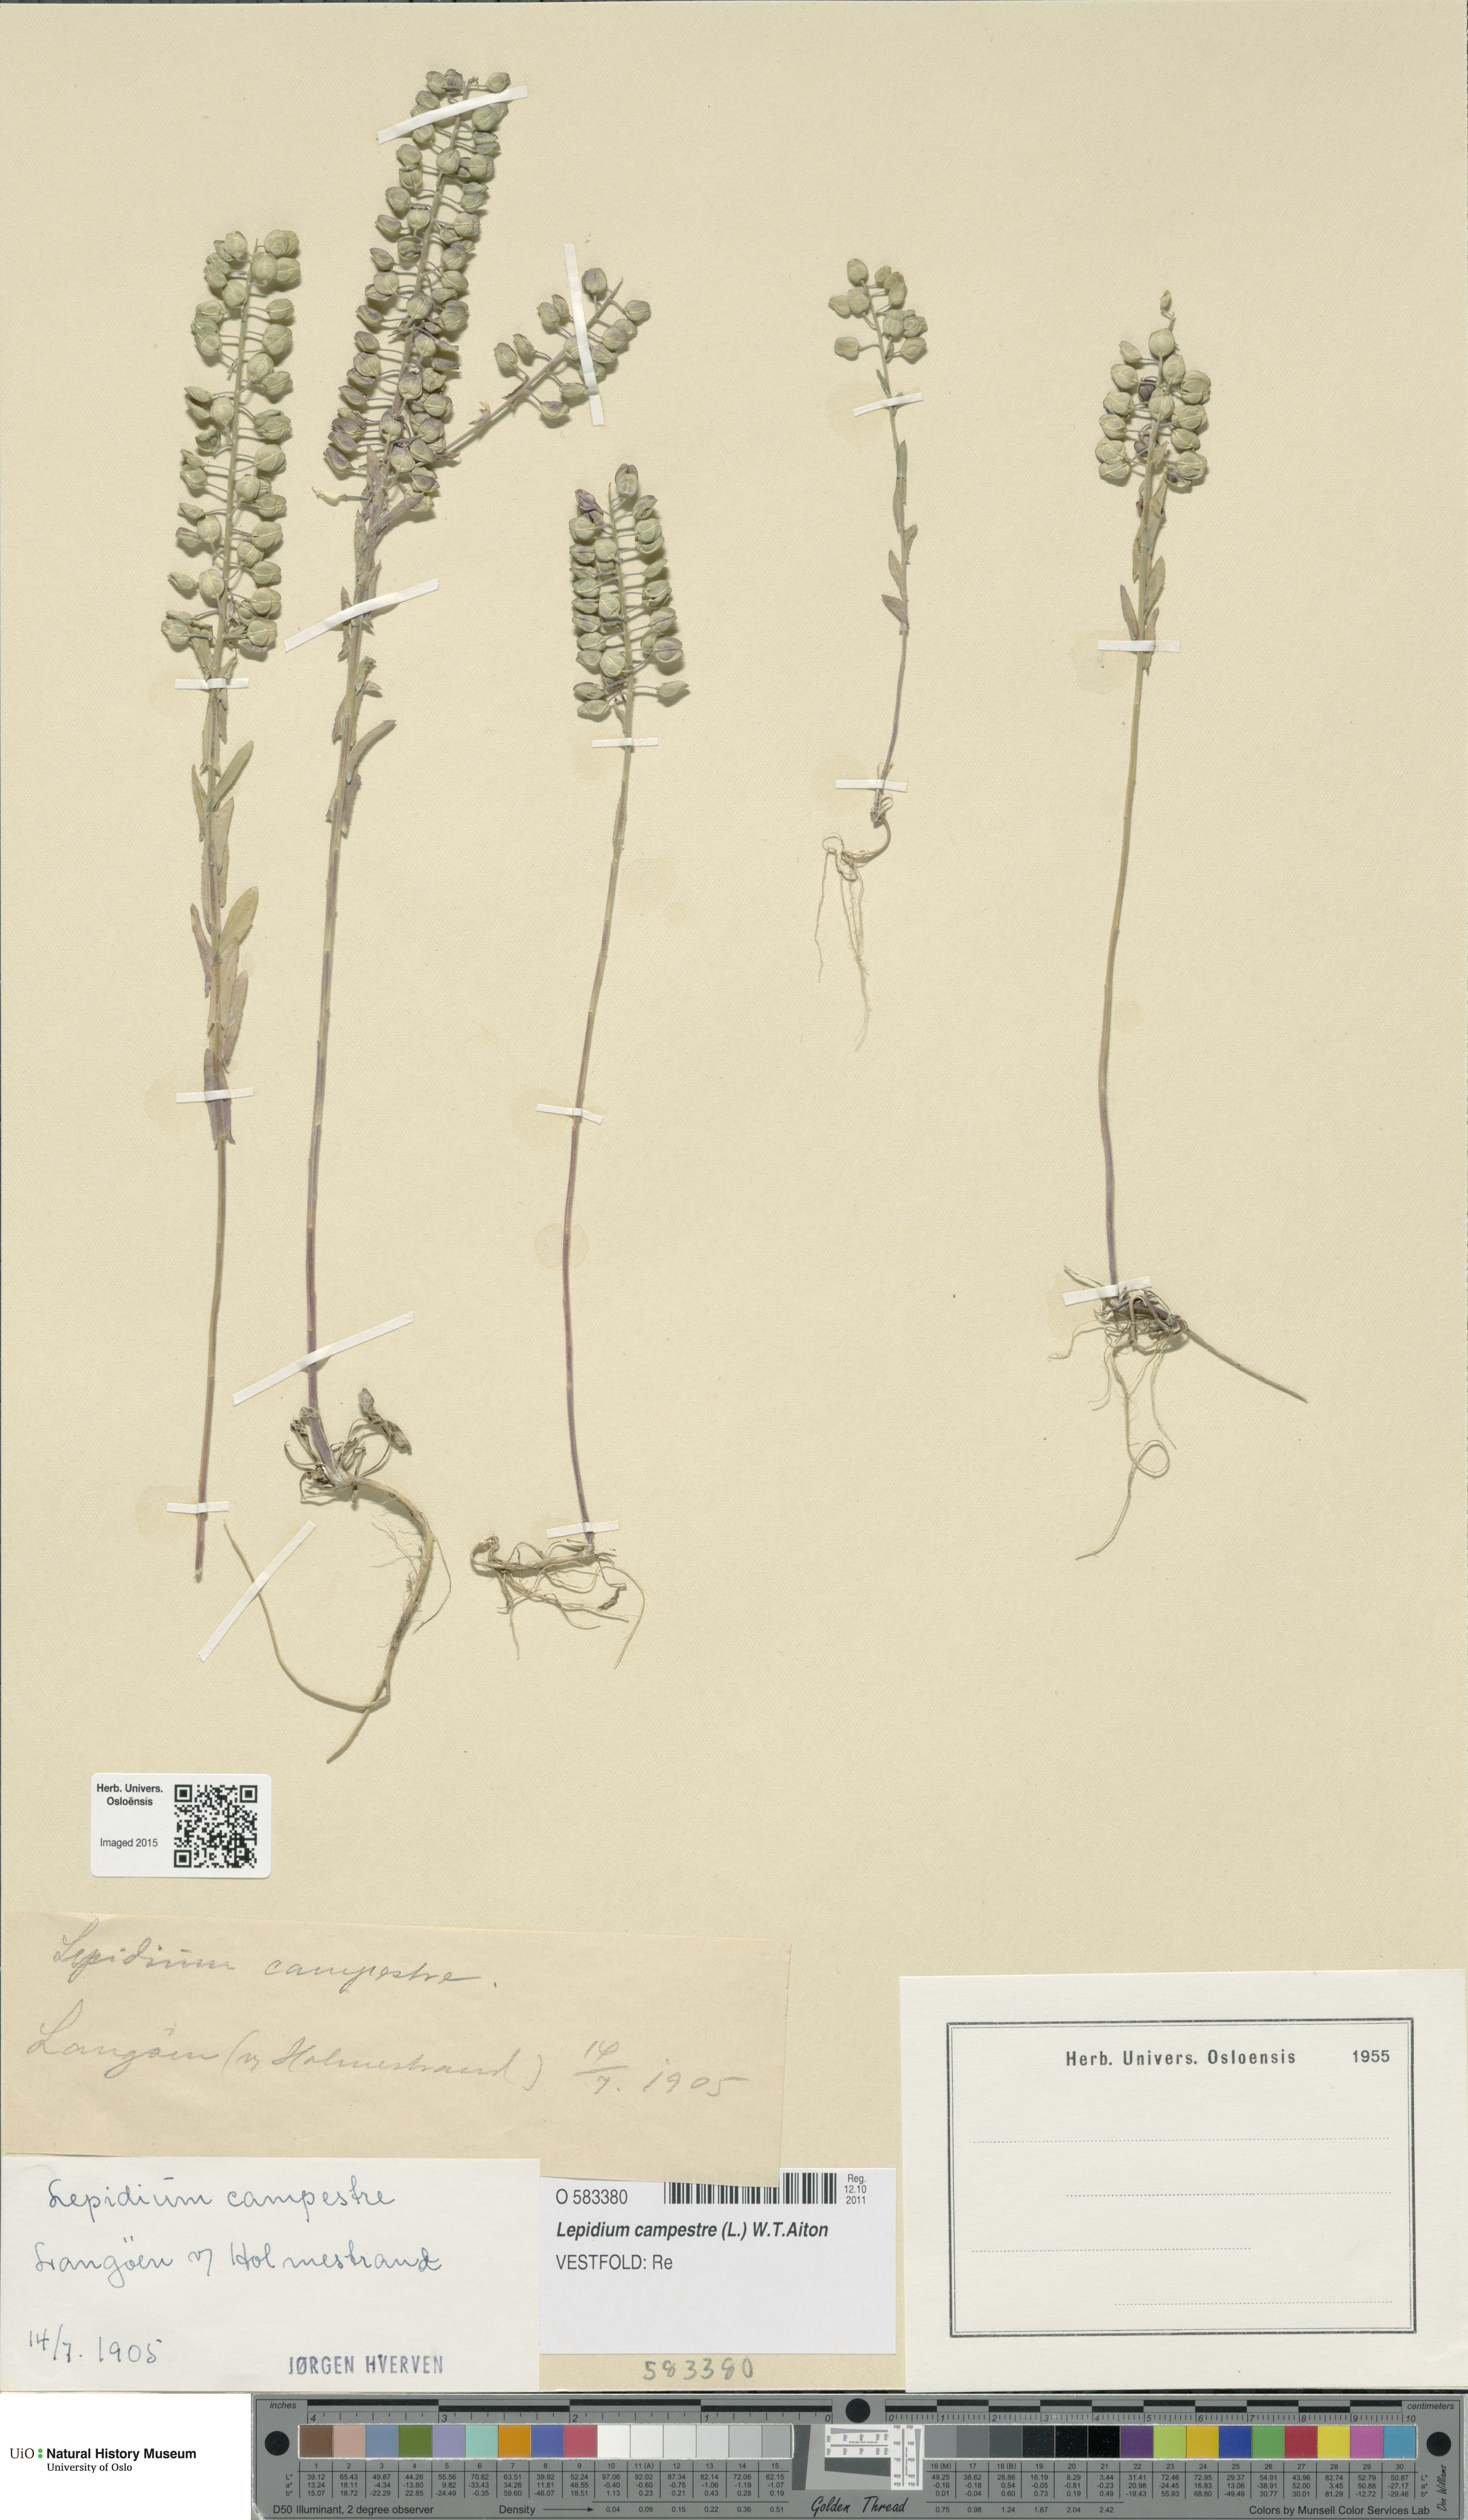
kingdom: Plantae
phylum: Tracheophyta
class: Magnoliopsida
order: Brassicales
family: Brassicaceae
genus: Lepidium
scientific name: Lepidium campestre
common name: Field pepperwort
